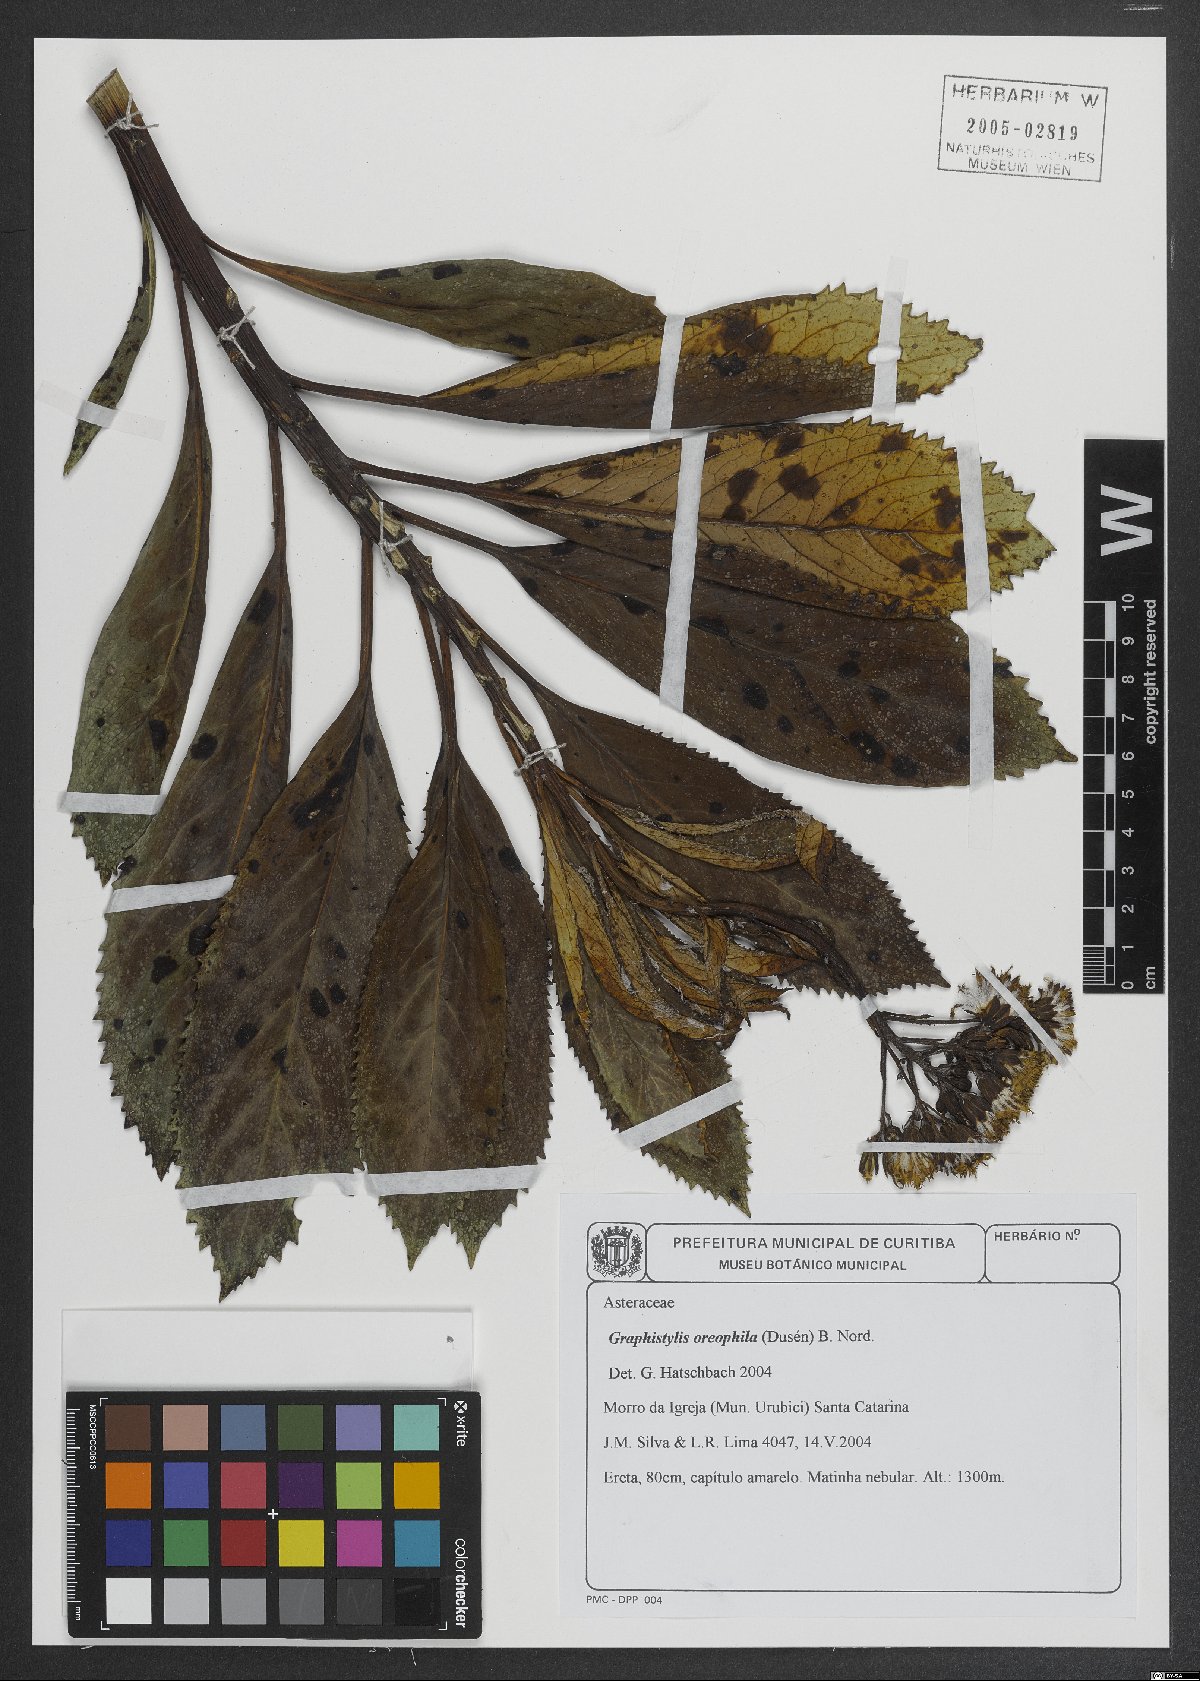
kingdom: Plantae
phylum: Tracheophyta
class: Magnoliopsida
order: Asterales
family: Asteraceae
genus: Graphistylis
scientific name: Graphistylis oreophila
